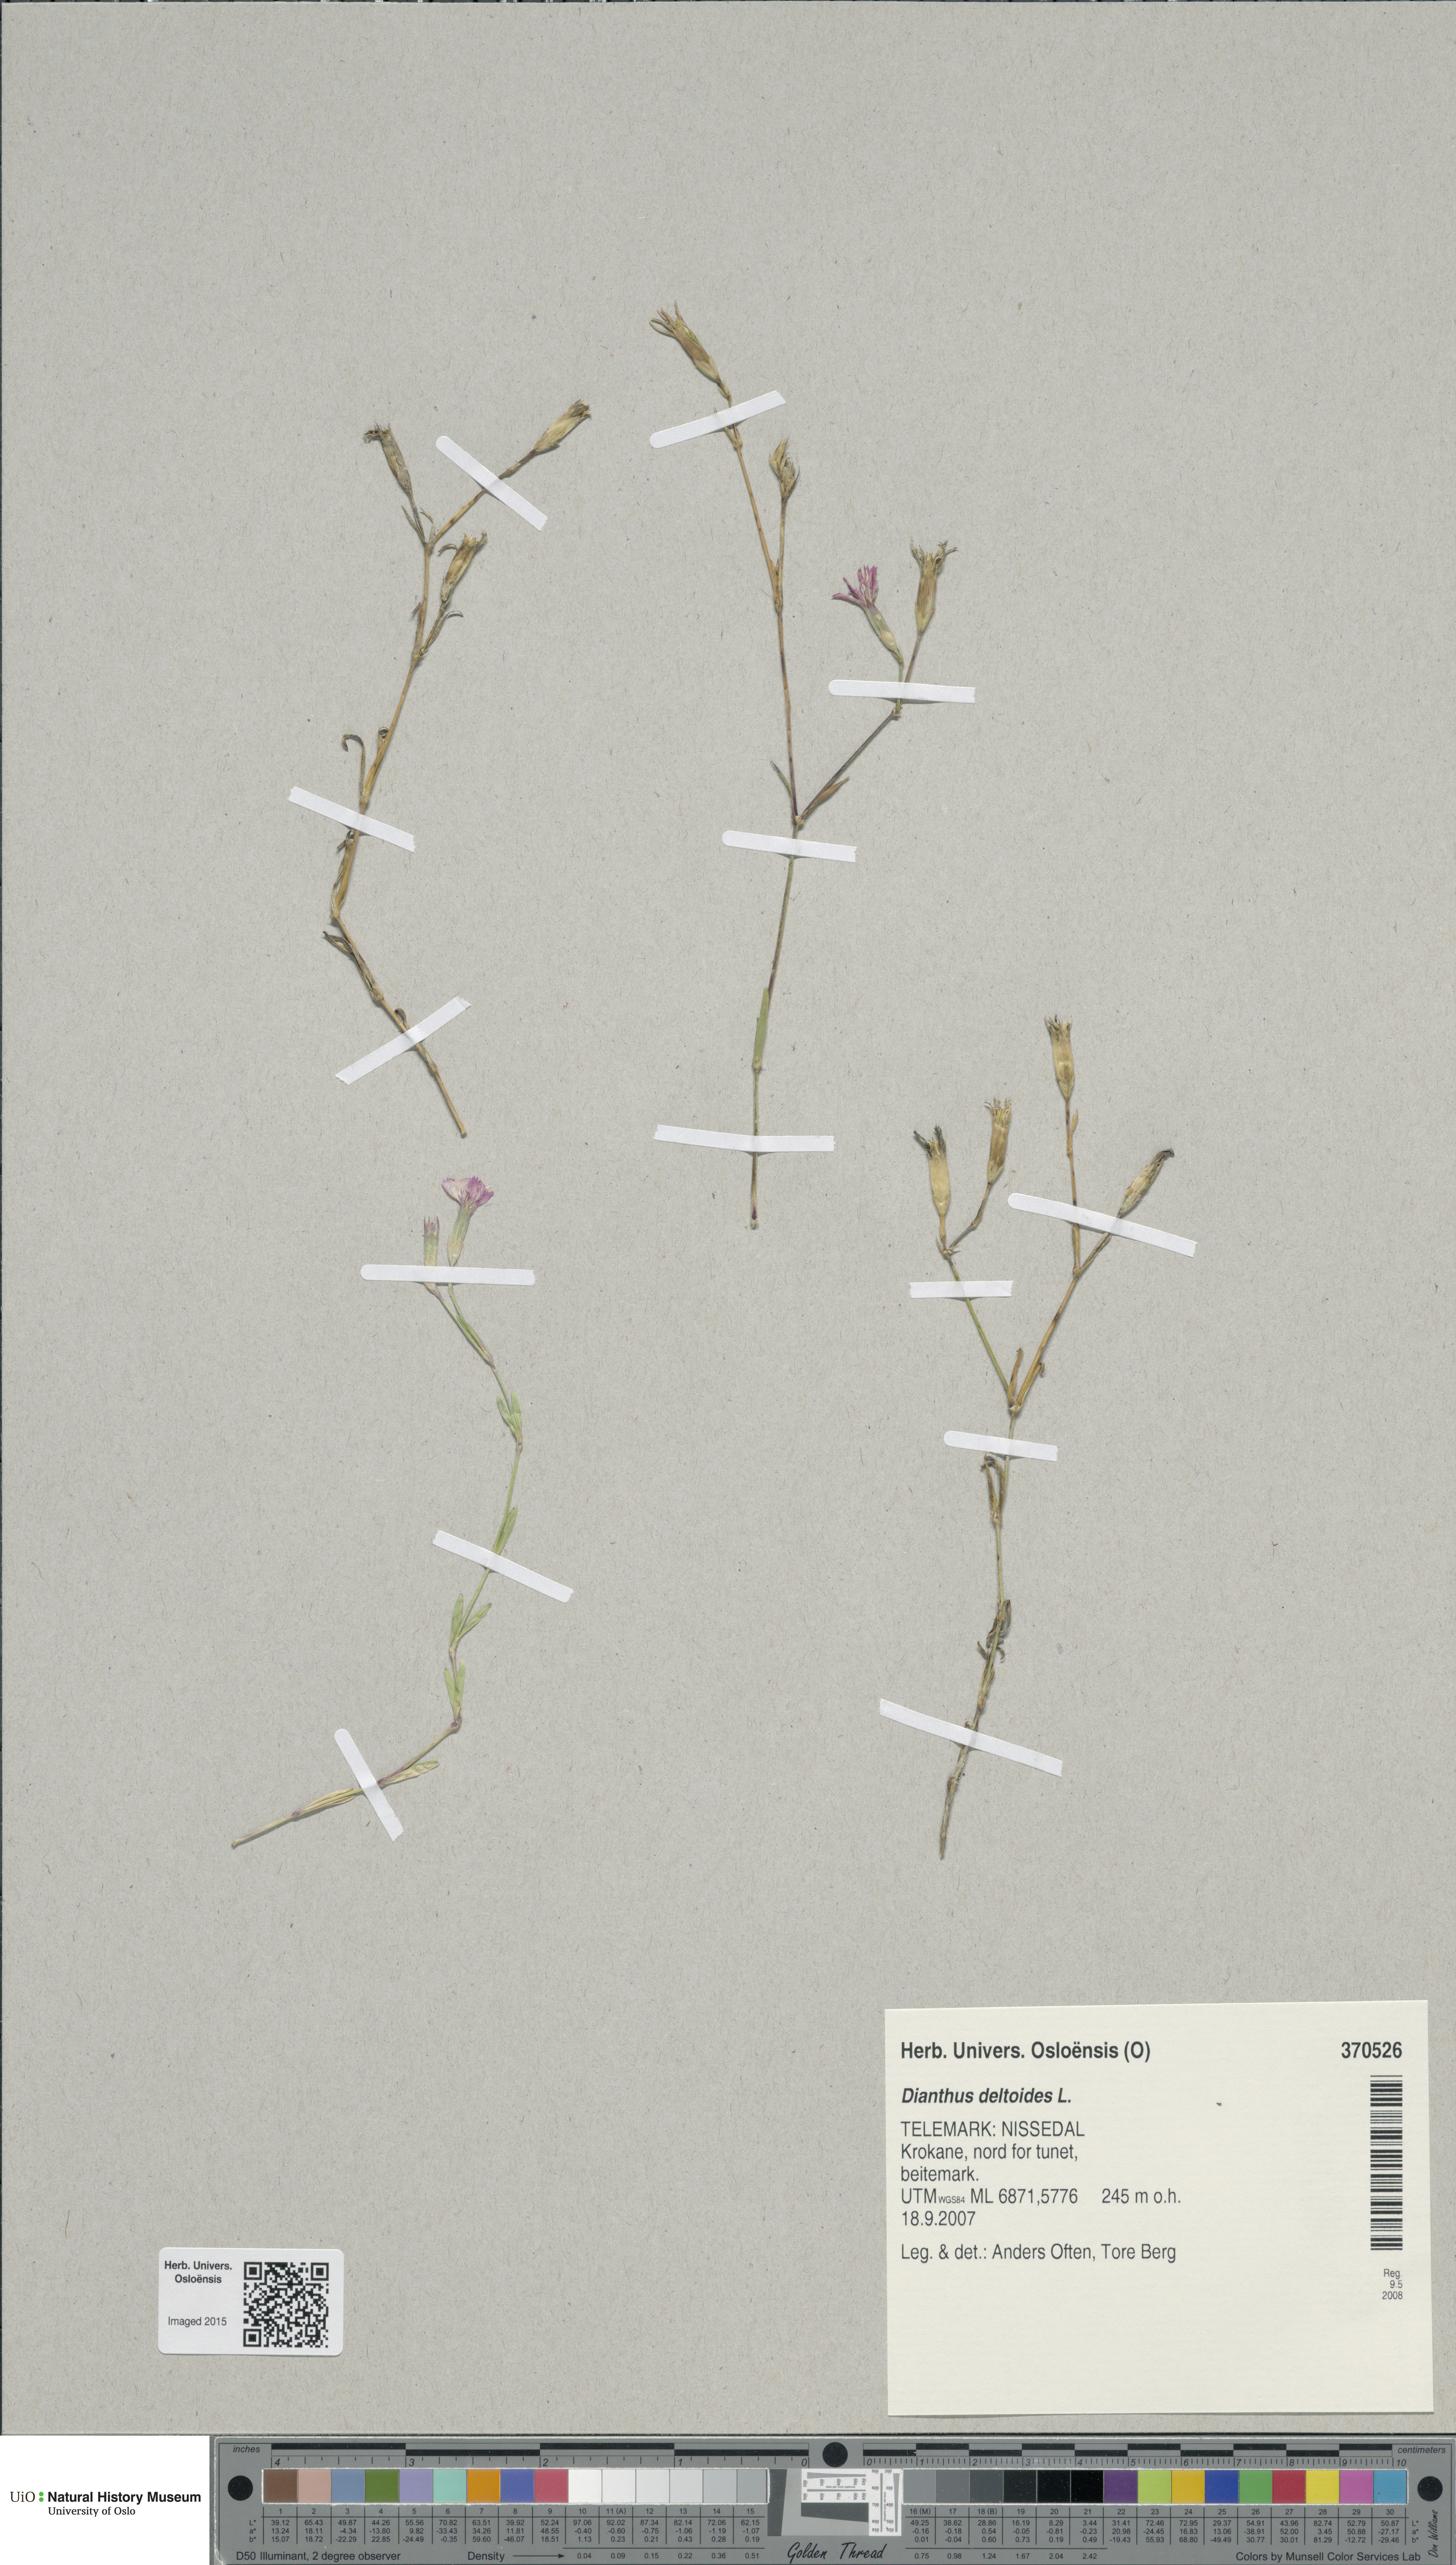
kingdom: Plantae
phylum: Tracheophyta
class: Magnoliopsida
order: Caryophyllales
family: Caryophyllaceae
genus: Dianthus
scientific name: Dianthus deltoides
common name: Maiden pink
